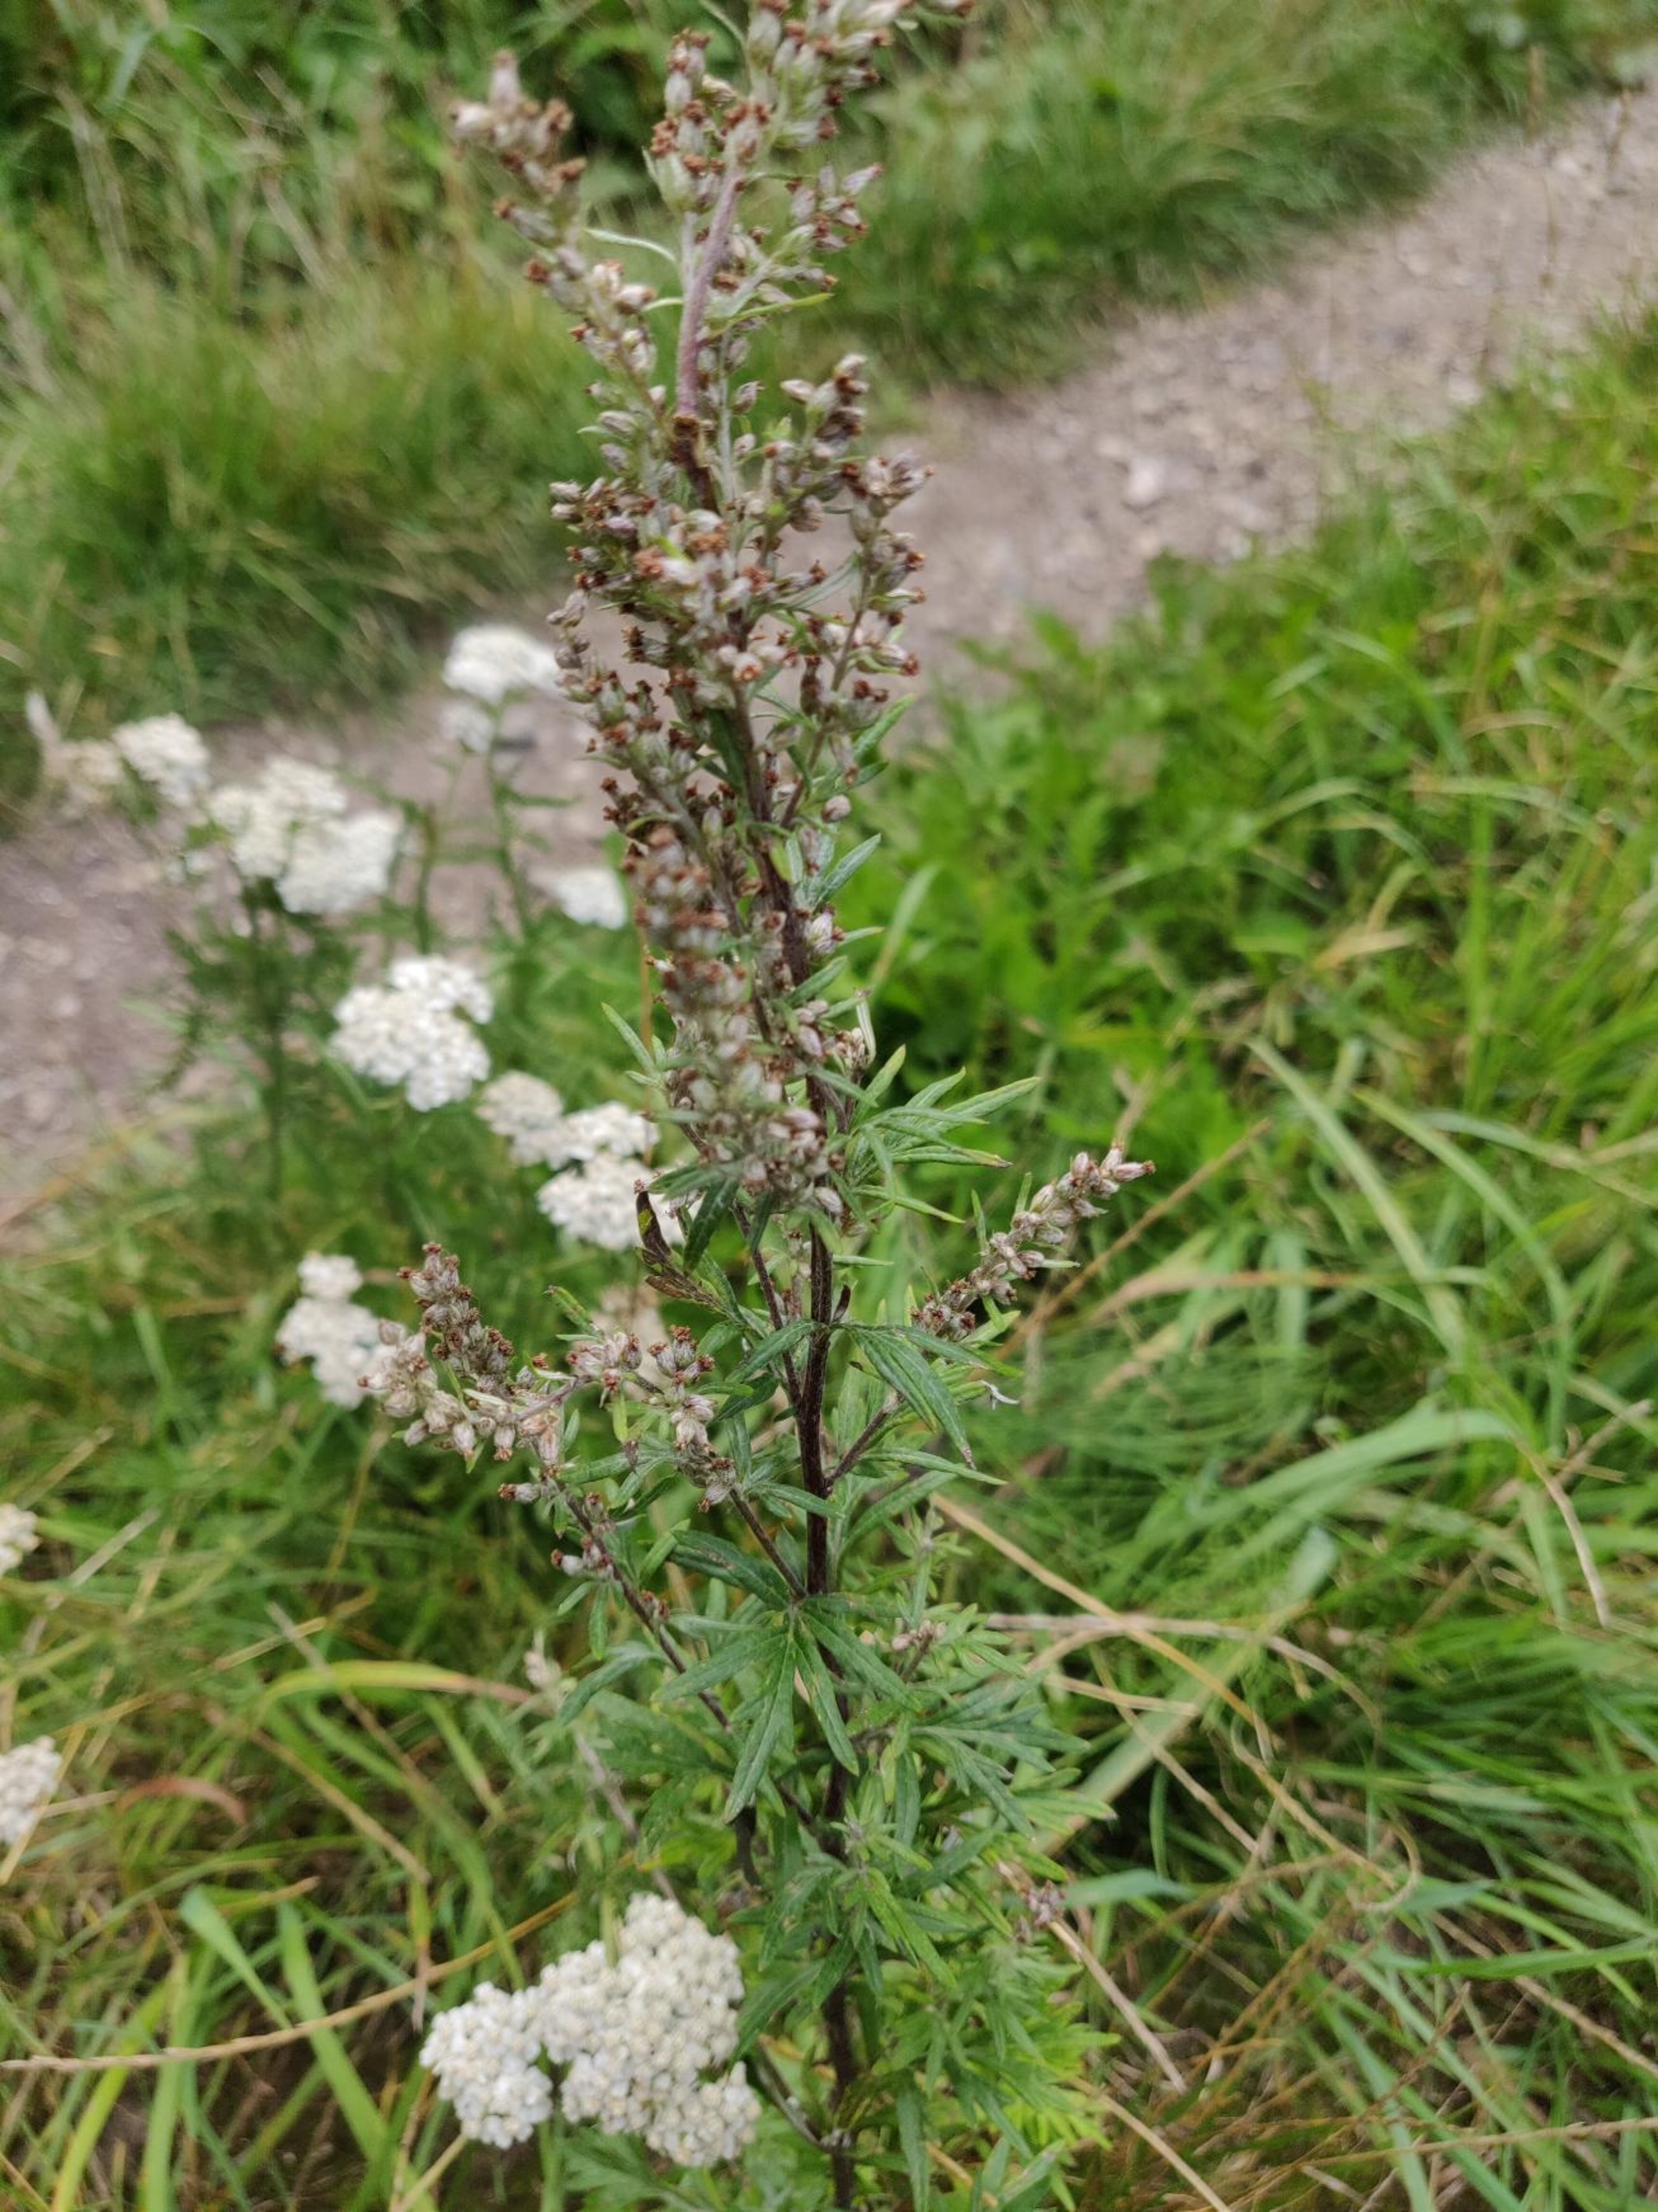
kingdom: Plantae
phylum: Tracheophyta
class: Magnoliopsida
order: Asterales
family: Asteraceae
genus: Artemisia
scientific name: Artemisia vulgaris
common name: Grå-bynke
